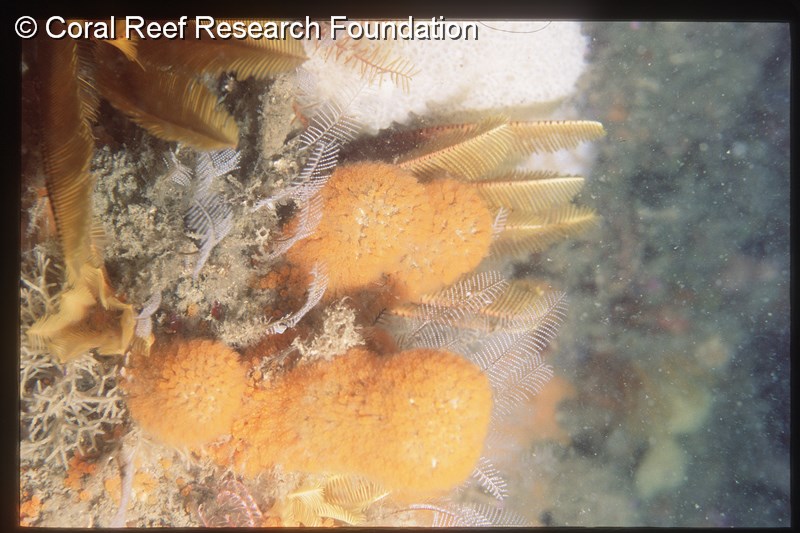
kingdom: Animalia
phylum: Chordata
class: Ascidiacea
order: Aplousobranchia
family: Clavelinidae
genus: Pycnoclavella
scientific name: Pycnoclavella inflorescens
